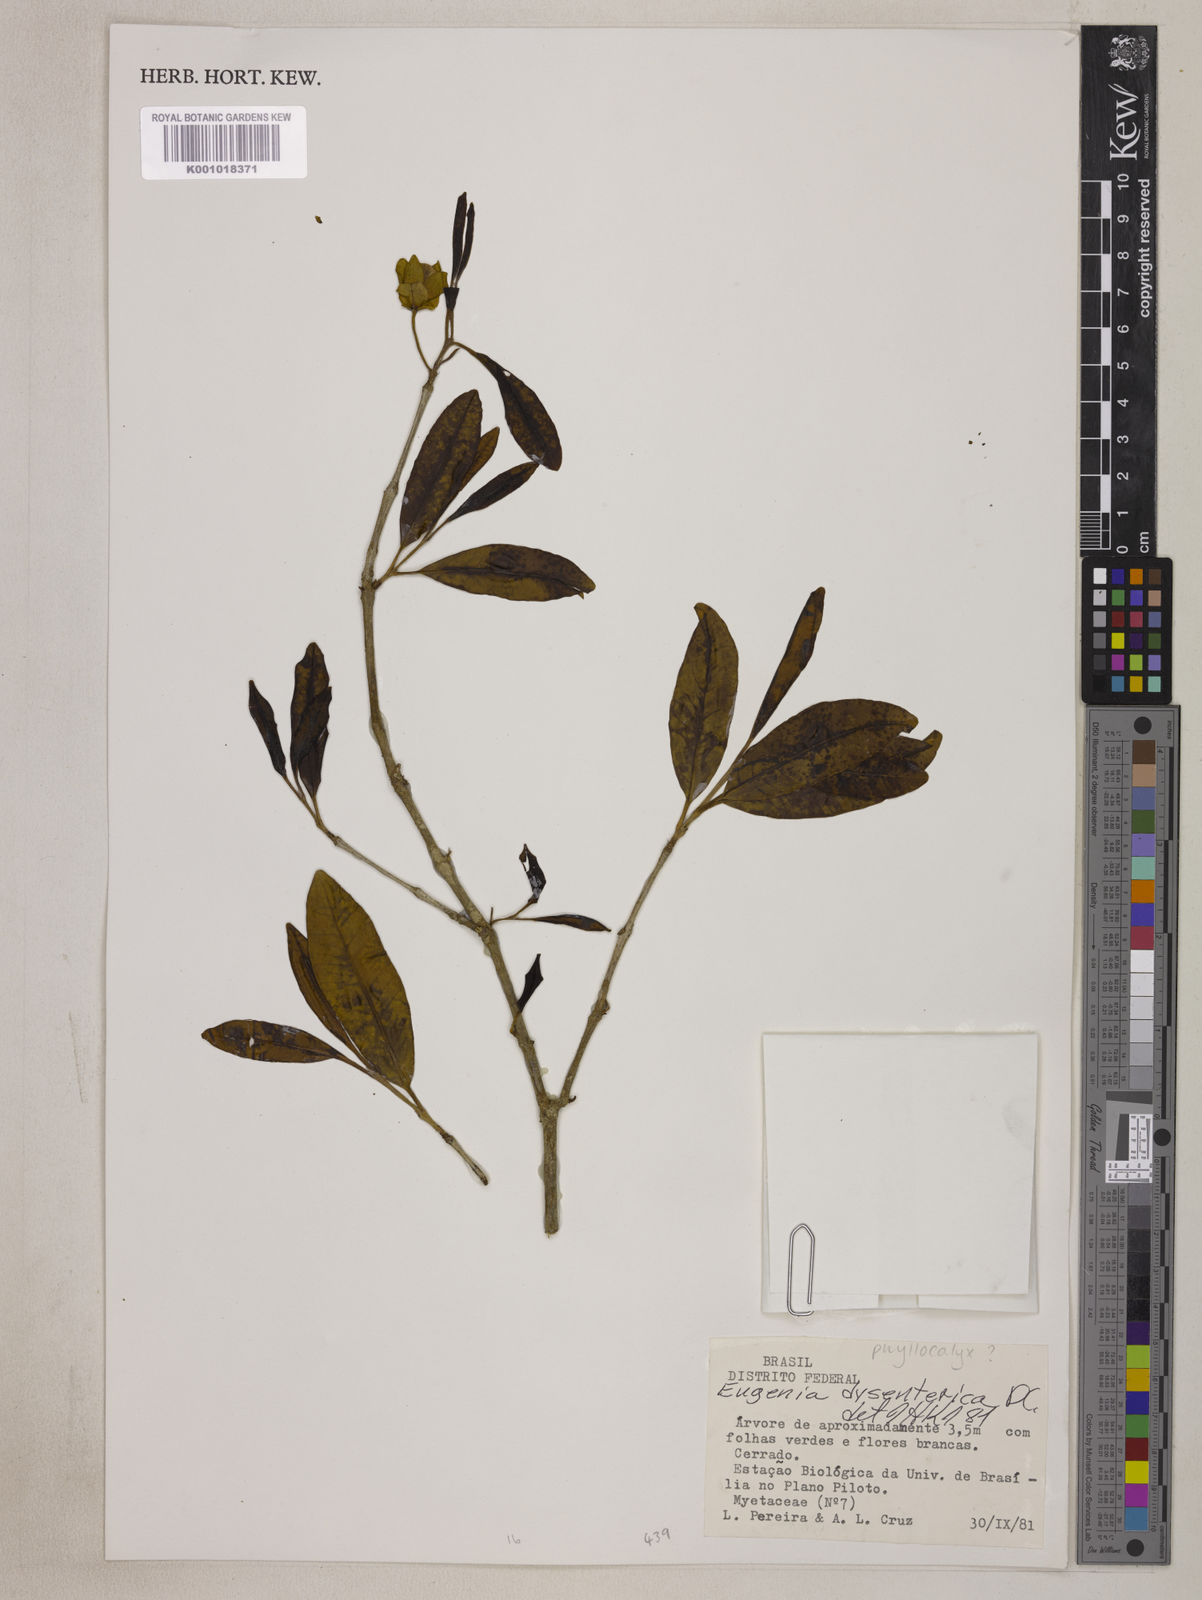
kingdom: Plantae
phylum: Tracheophyta
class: Magnoliopsida
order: Myrtales
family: Myrtaceae
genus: Eugenia
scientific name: Eugenia involucrata
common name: Cherry-of-the-rio grande
